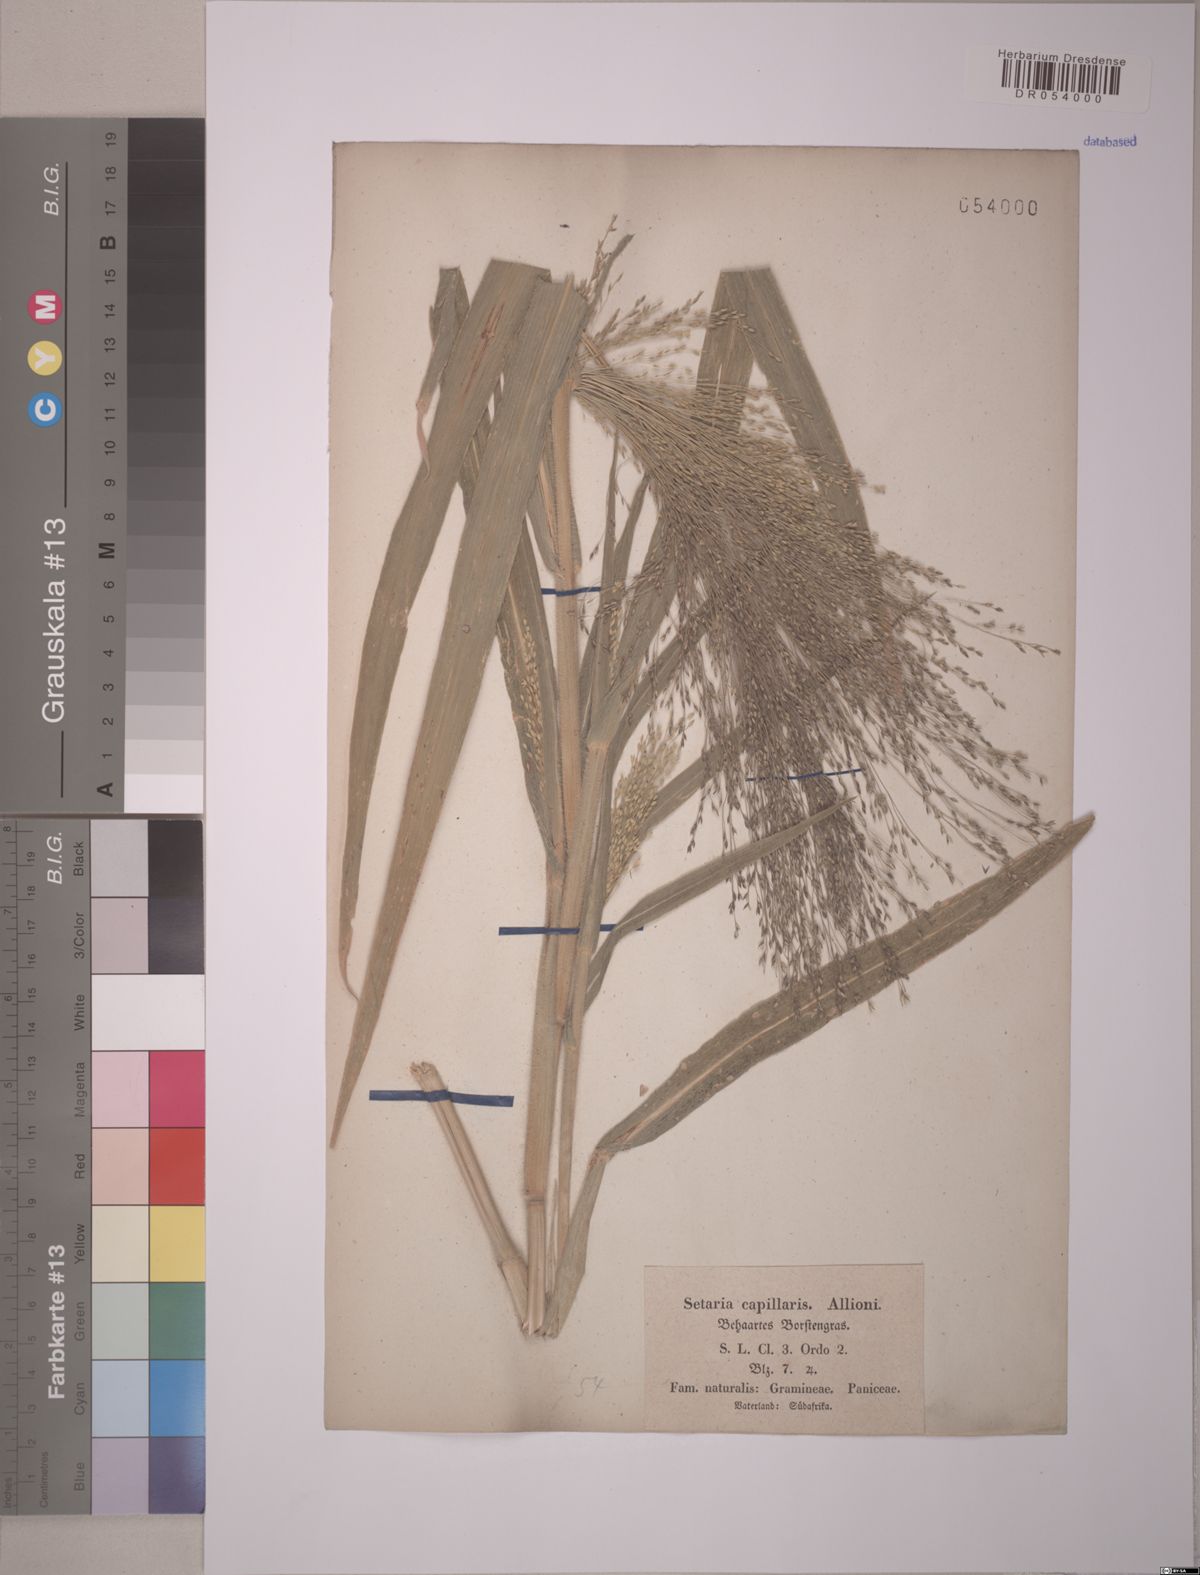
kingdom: Plantae
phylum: Tracheophyta
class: Liliopsida
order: Poales
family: Poaceae
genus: Setaria
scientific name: Setaria
